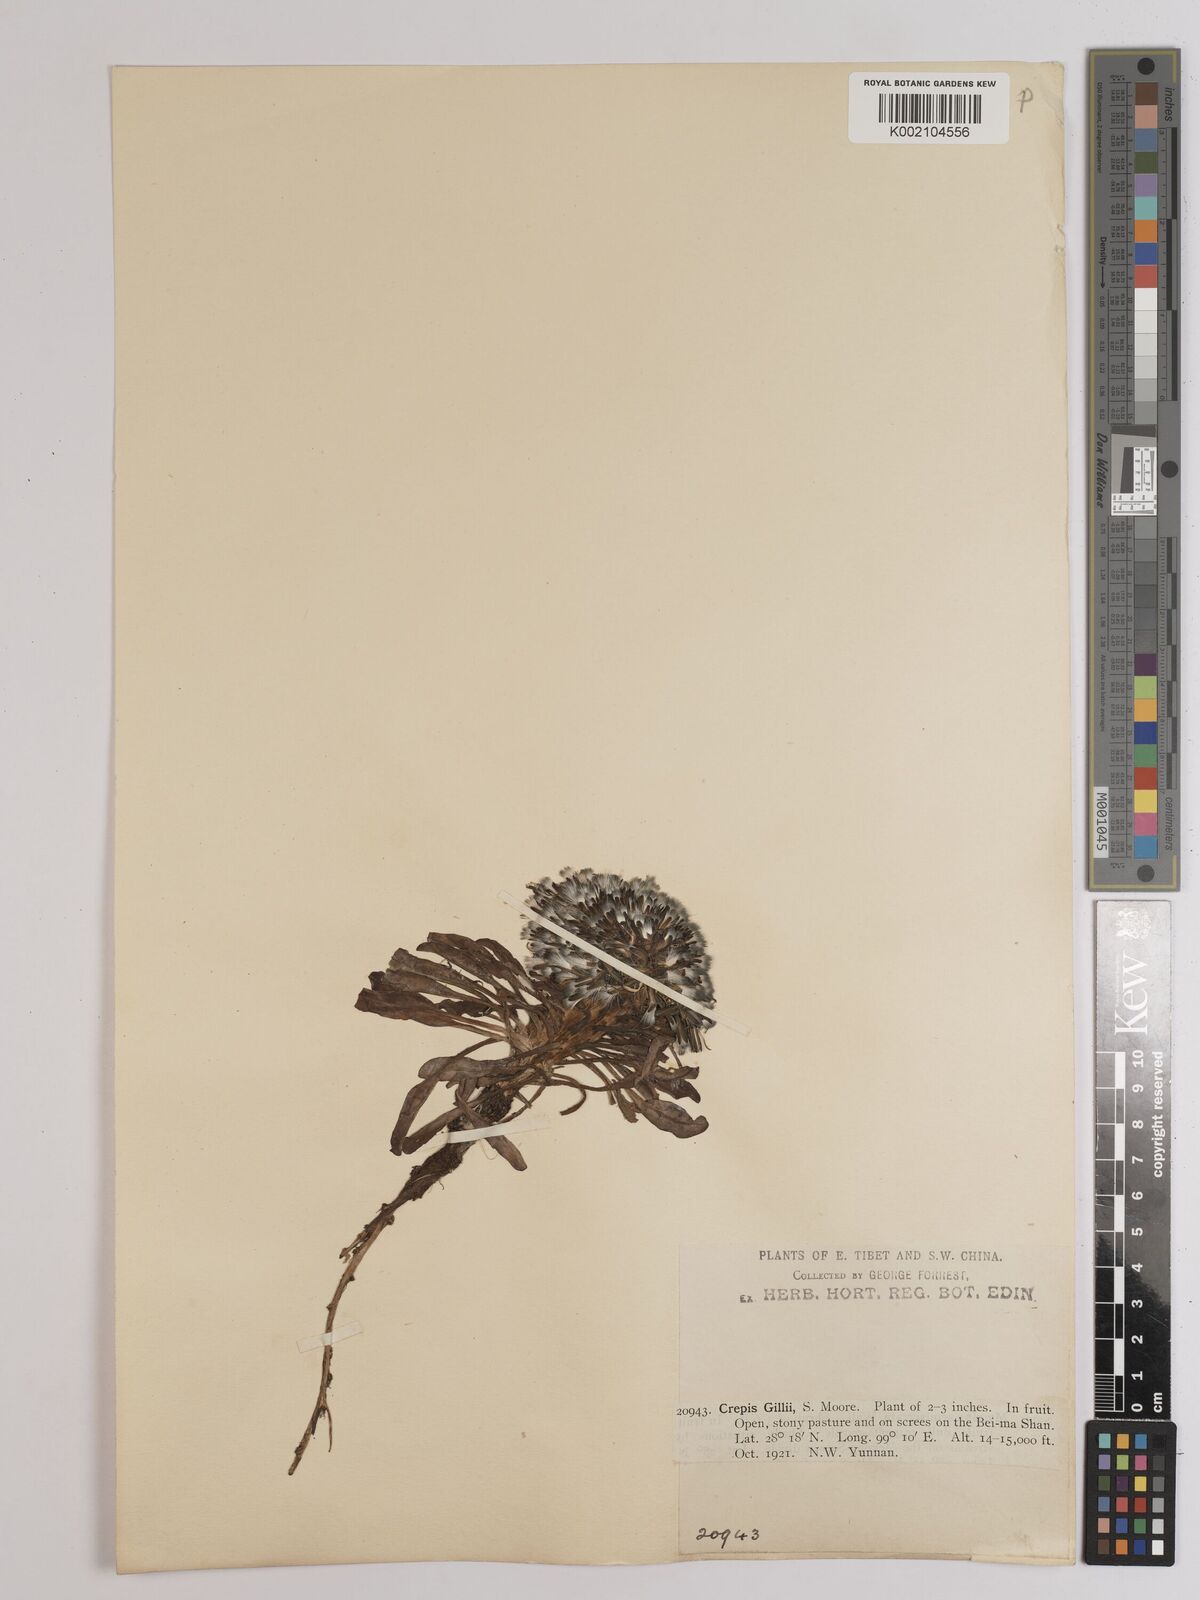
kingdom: Plantae
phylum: Tracheophyta
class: Magnoliopsida
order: Asterales
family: Asteraceae
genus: Soroseris
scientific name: Soroseris hookeriana
